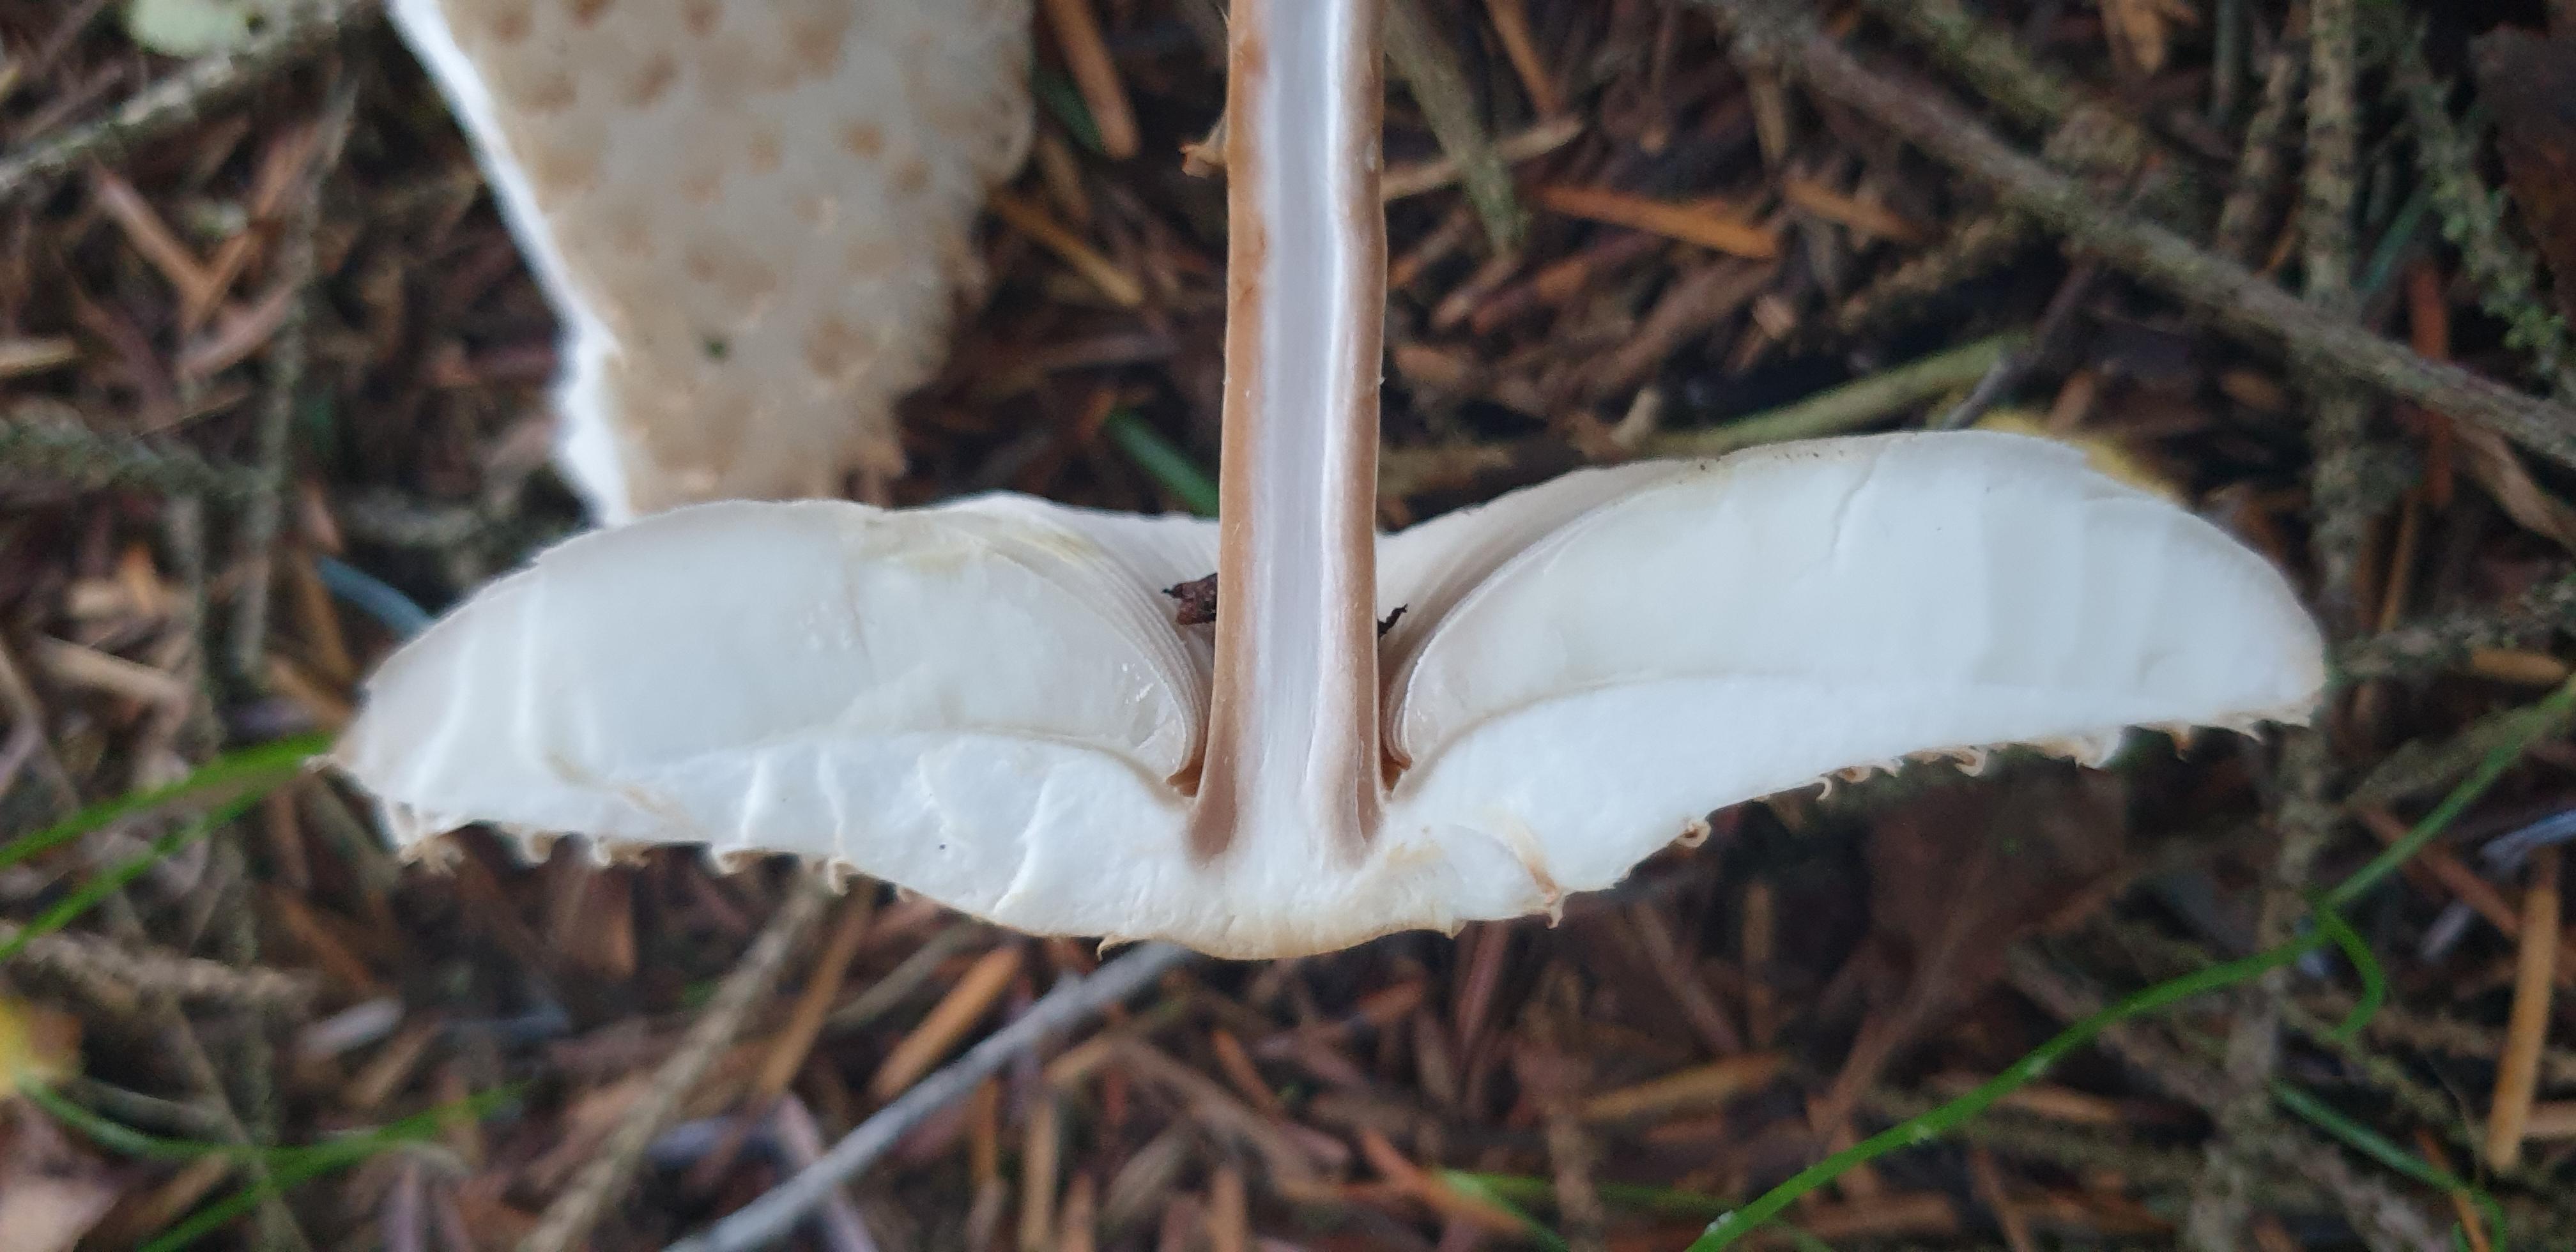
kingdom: Fungi
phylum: Basidiomycota
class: Agaricomycetes
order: Agaricales
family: Agaricaceae
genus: Leucoagaricus
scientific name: Leucoagaricus nympharum
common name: gran-silkehat
